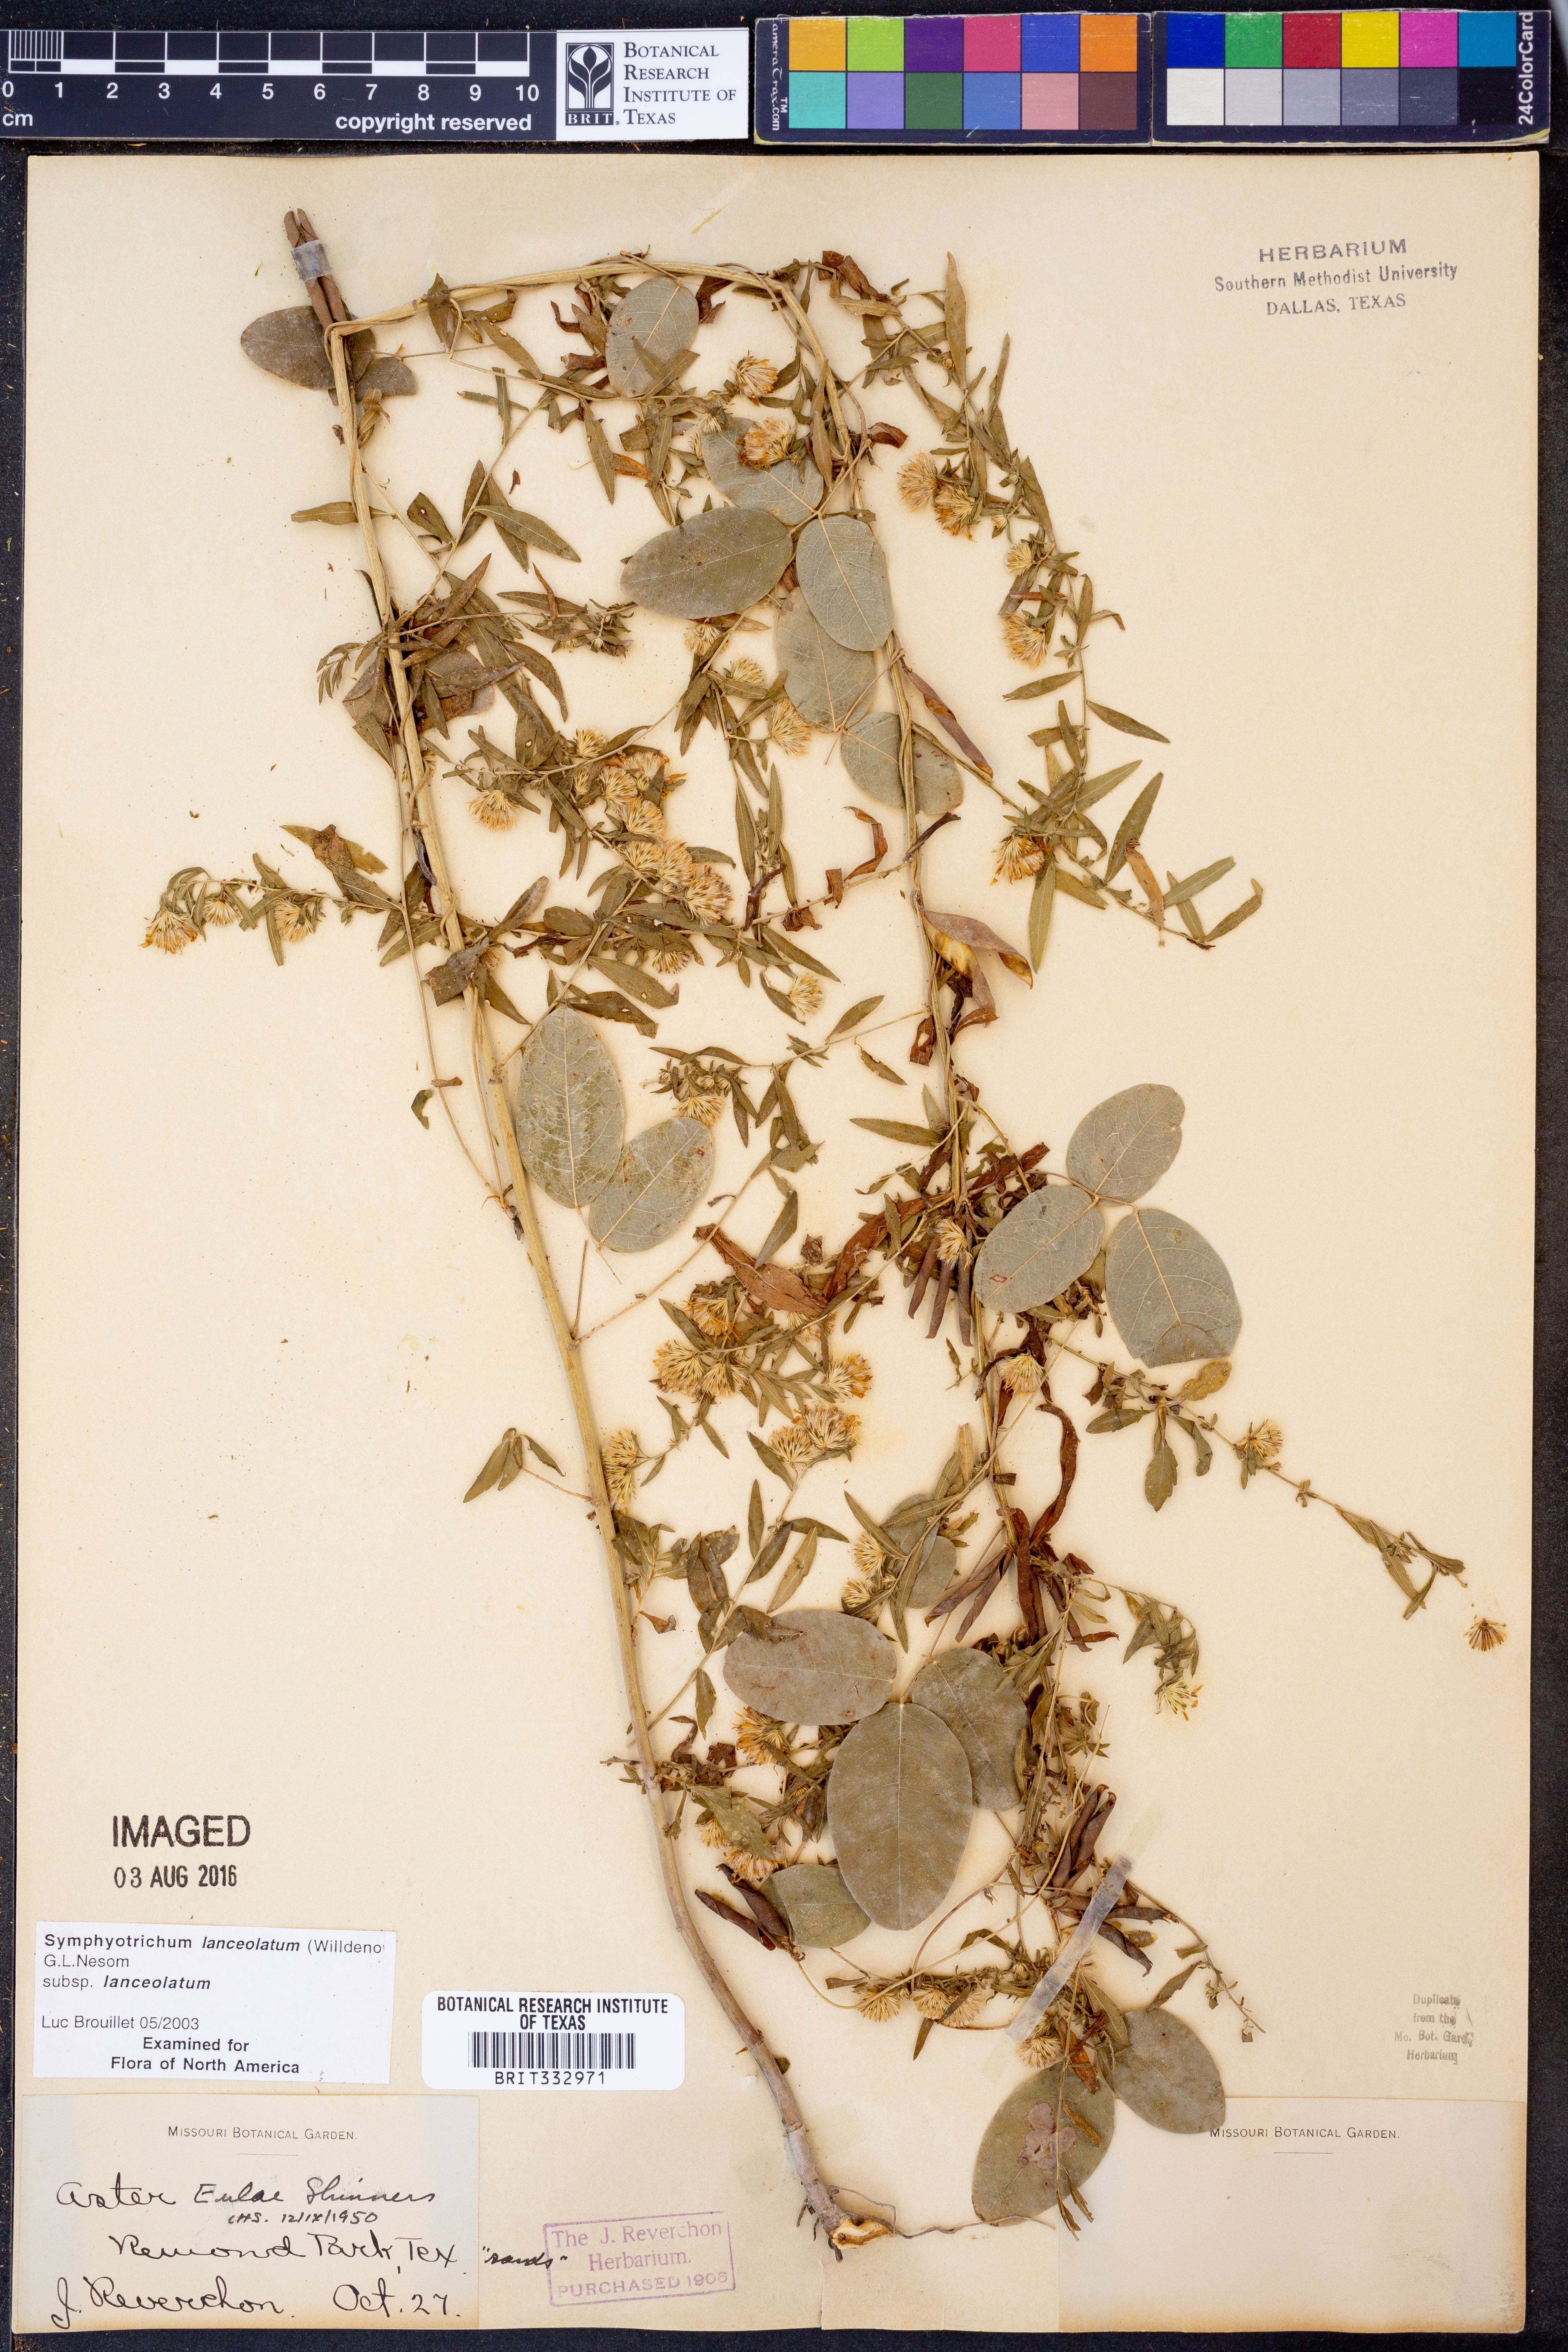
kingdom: Plantae
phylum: Tracheophyta
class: Magnoliopsida
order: Asterales
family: Asteraceae
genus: Symphyotrichum
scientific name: Symphyotrichum lanceolatum
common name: Panicled aster
